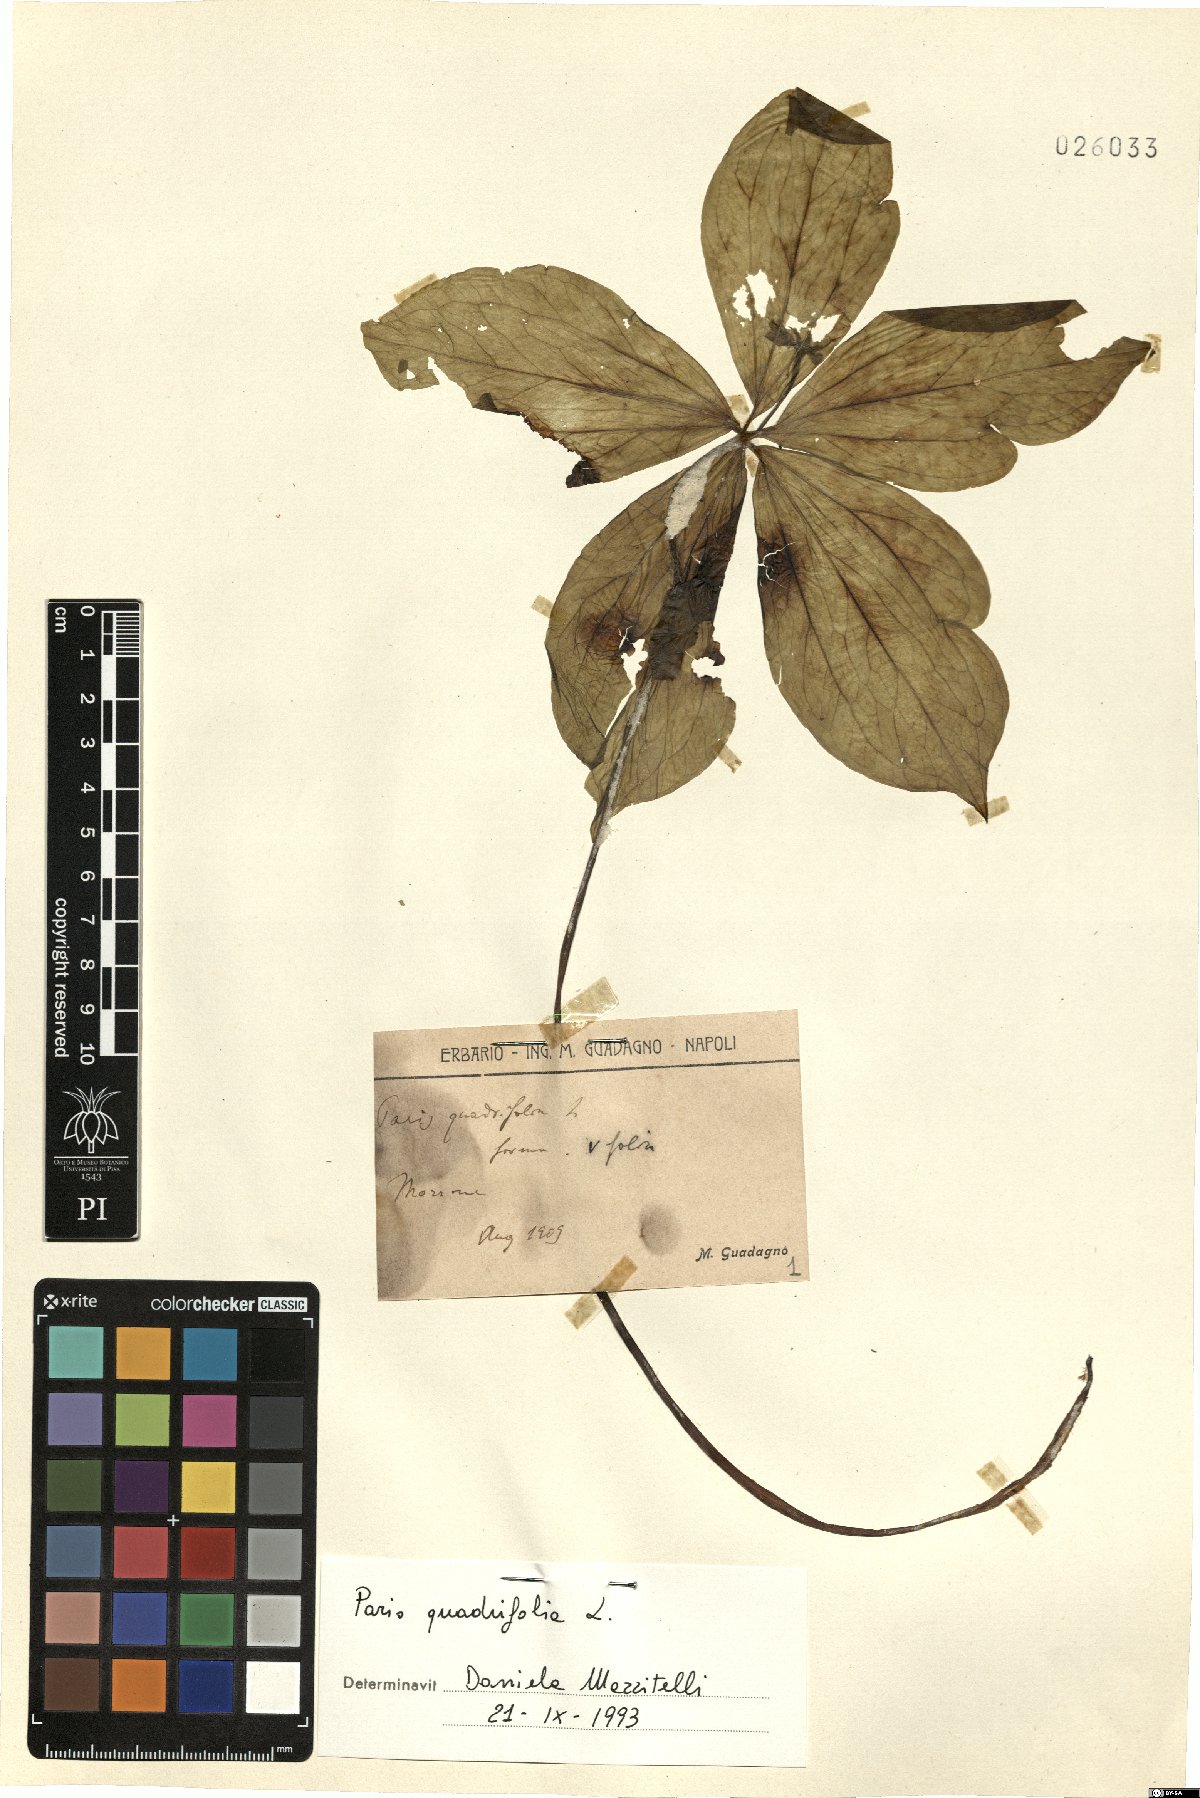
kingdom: Plantae
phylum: Tracheophyta
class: Liliopsida
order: Liliales
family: Melanthiaceae
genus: Paris
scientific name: Paris quadrifolia
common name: Herb-paris
